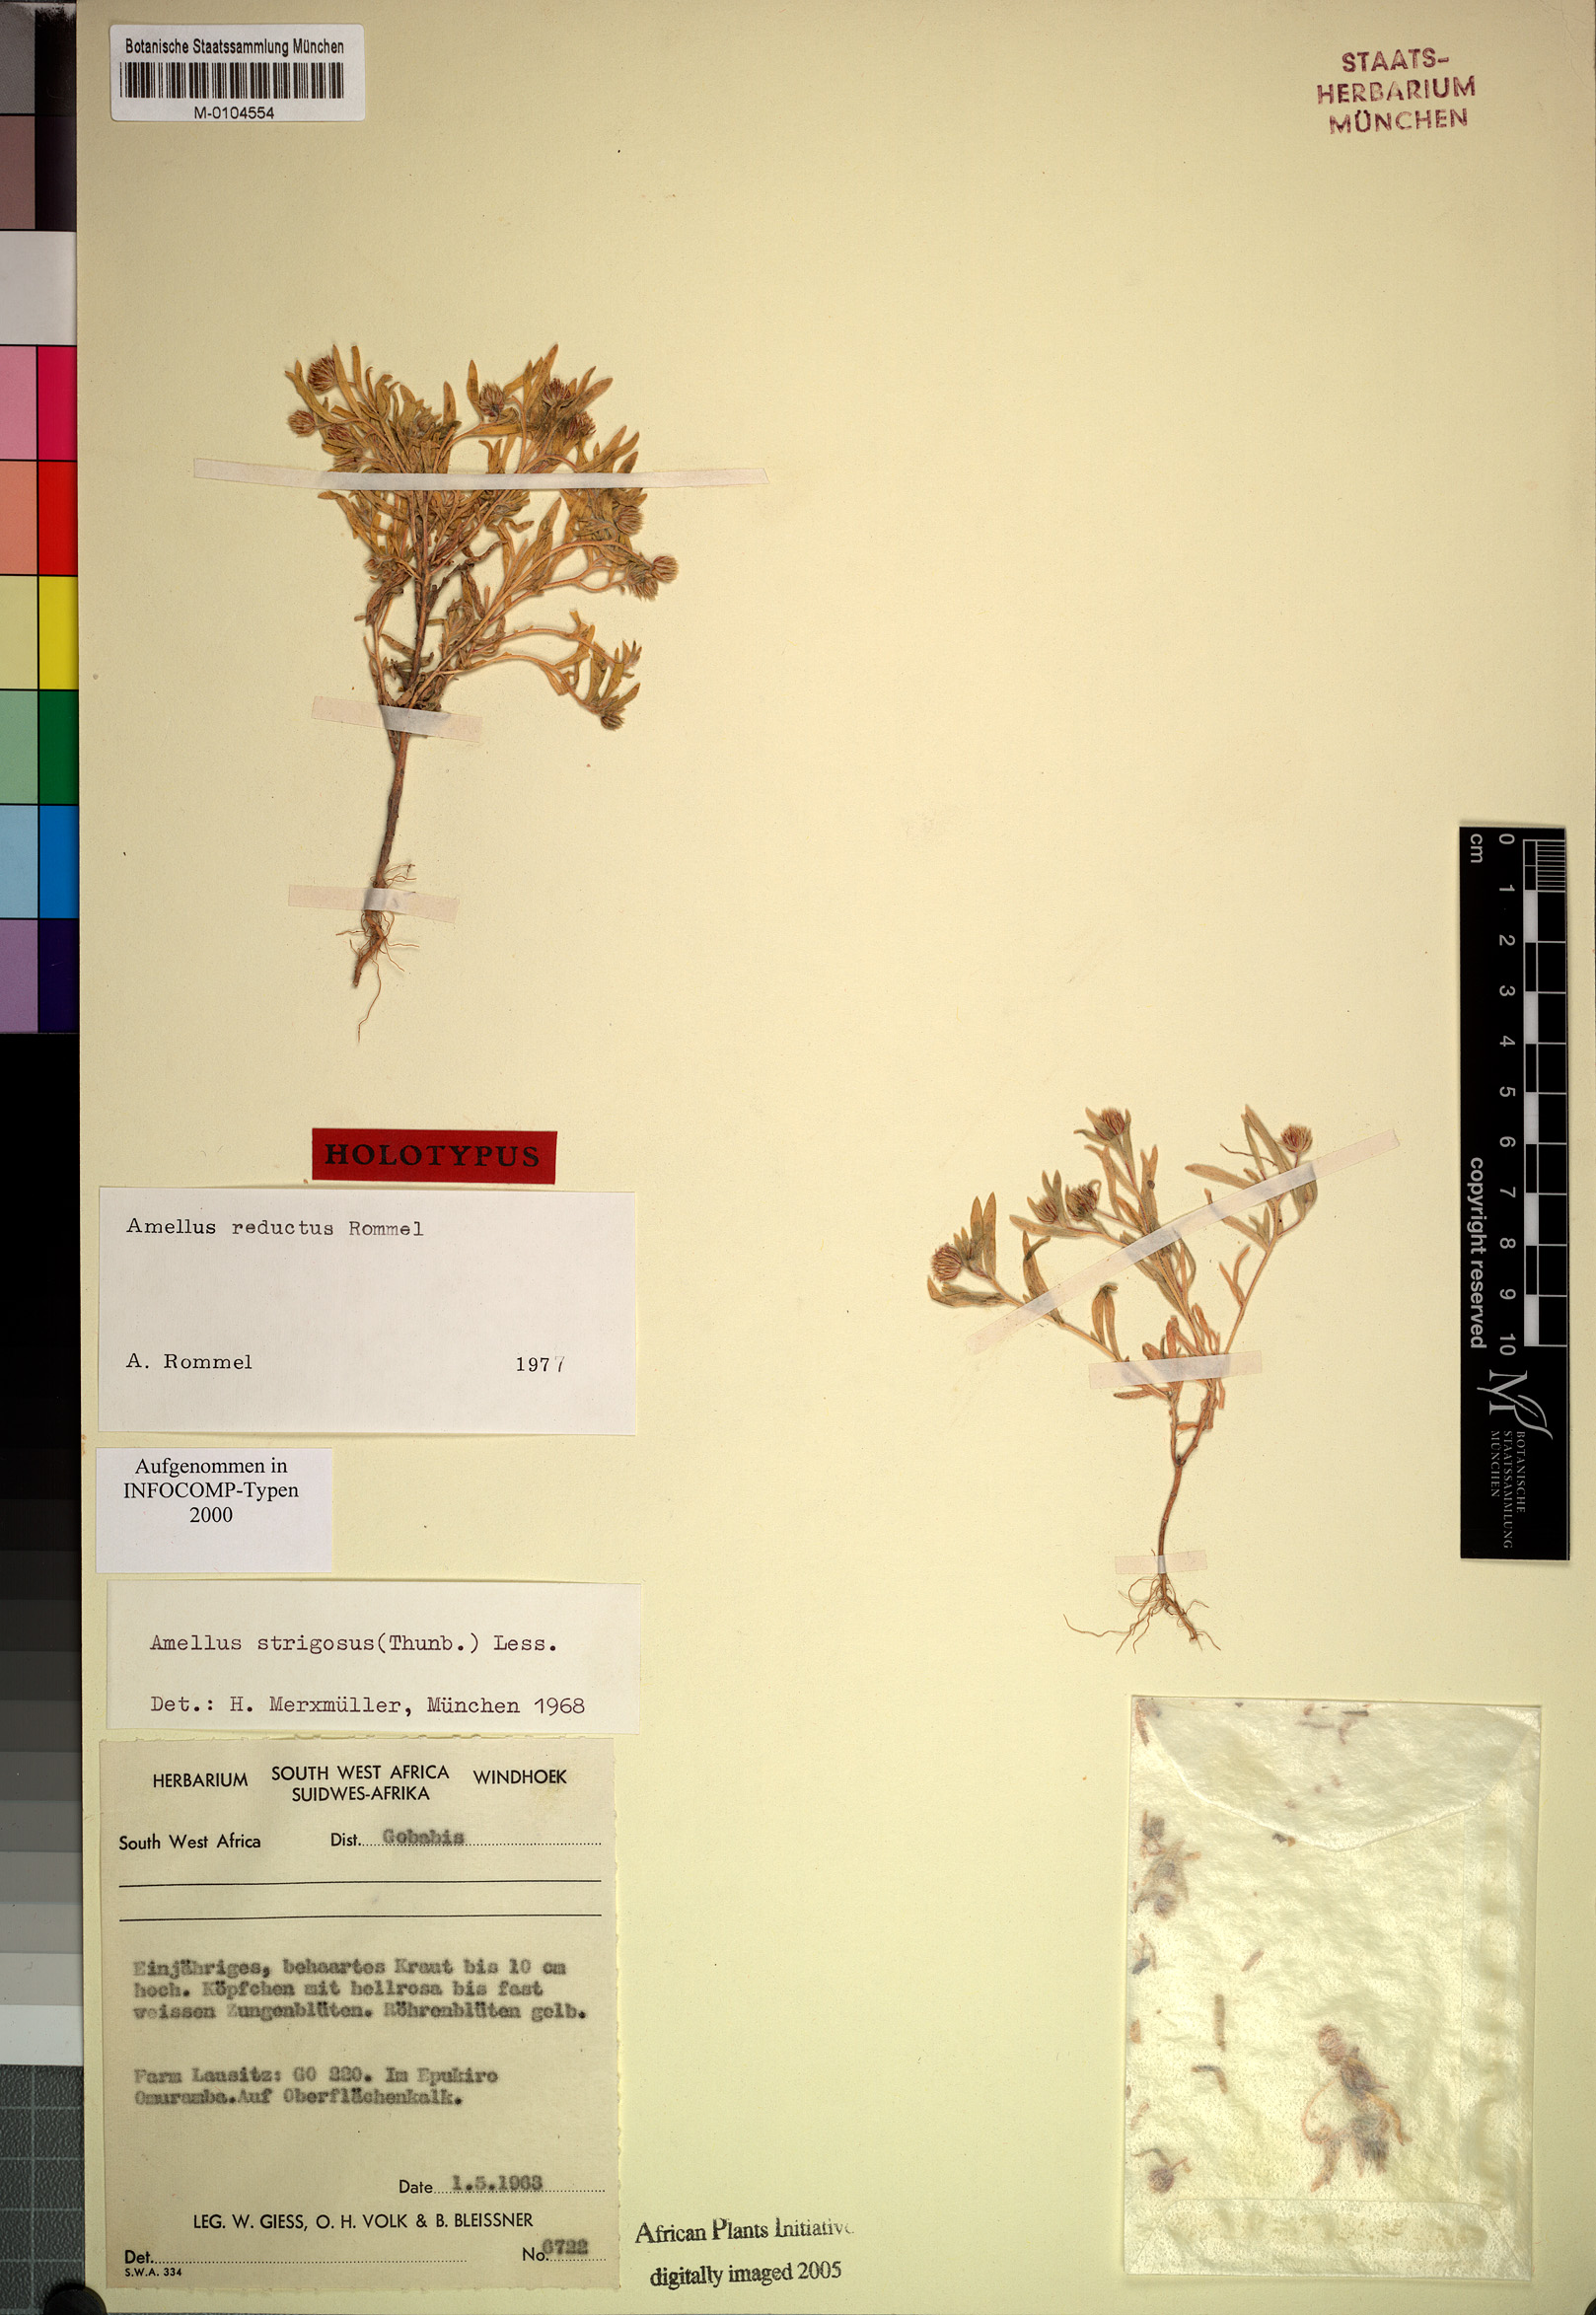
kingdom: Plantae
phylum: Tracheophyta
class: Magnoliopsida
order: Asterales
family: Asteraceae
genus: Amellus
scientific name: Amellus reductus
